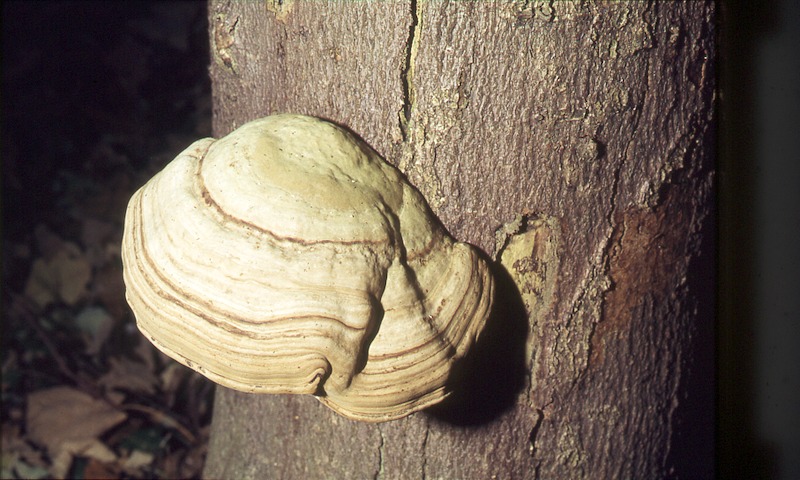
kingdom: Fungi
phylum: Basidiomycota
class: Agaricomycetes
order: Polyporales
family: Polyporaceae
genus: Fomes
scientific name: Fomes fomentarius
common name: Hoof fungus
